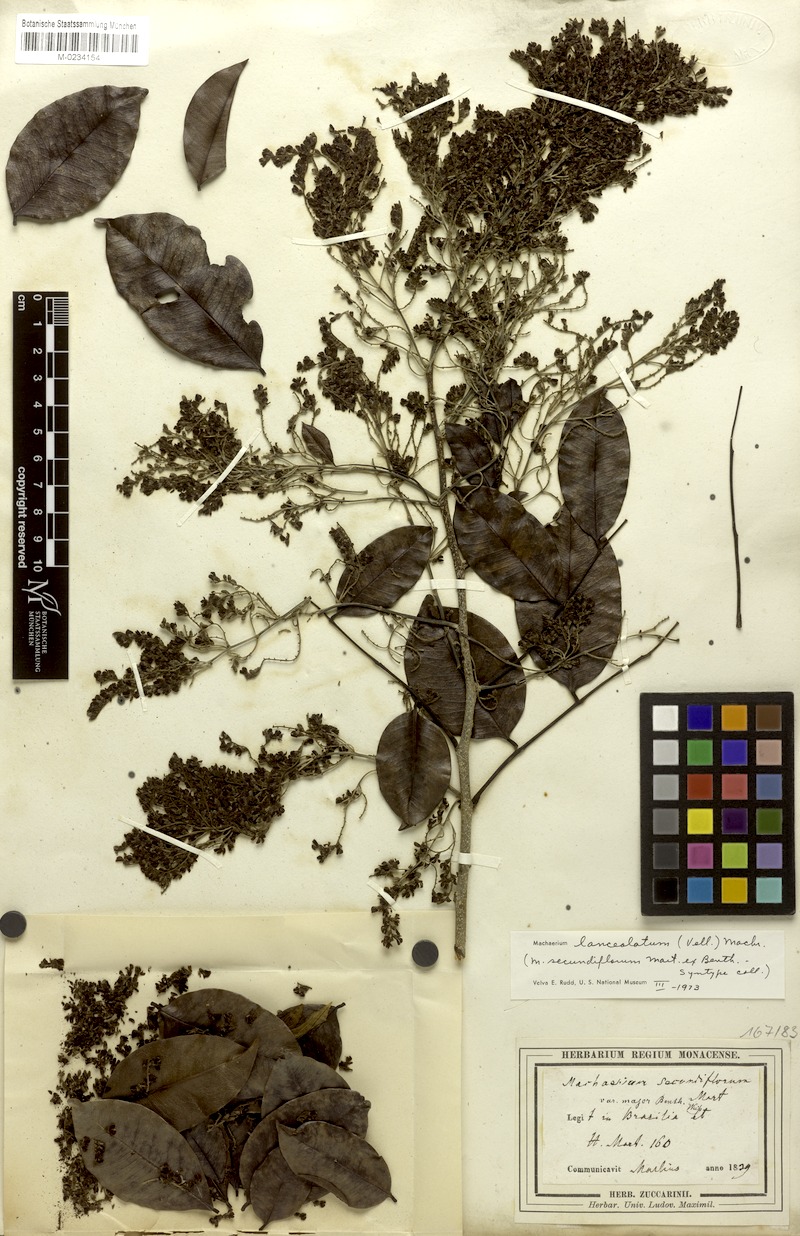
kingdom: Plantae
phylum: Tracheophyta
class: Magnoliopsida
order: Fabales
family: Fabaceae
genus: Machaerium
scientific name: Machaerium lanceolatum
